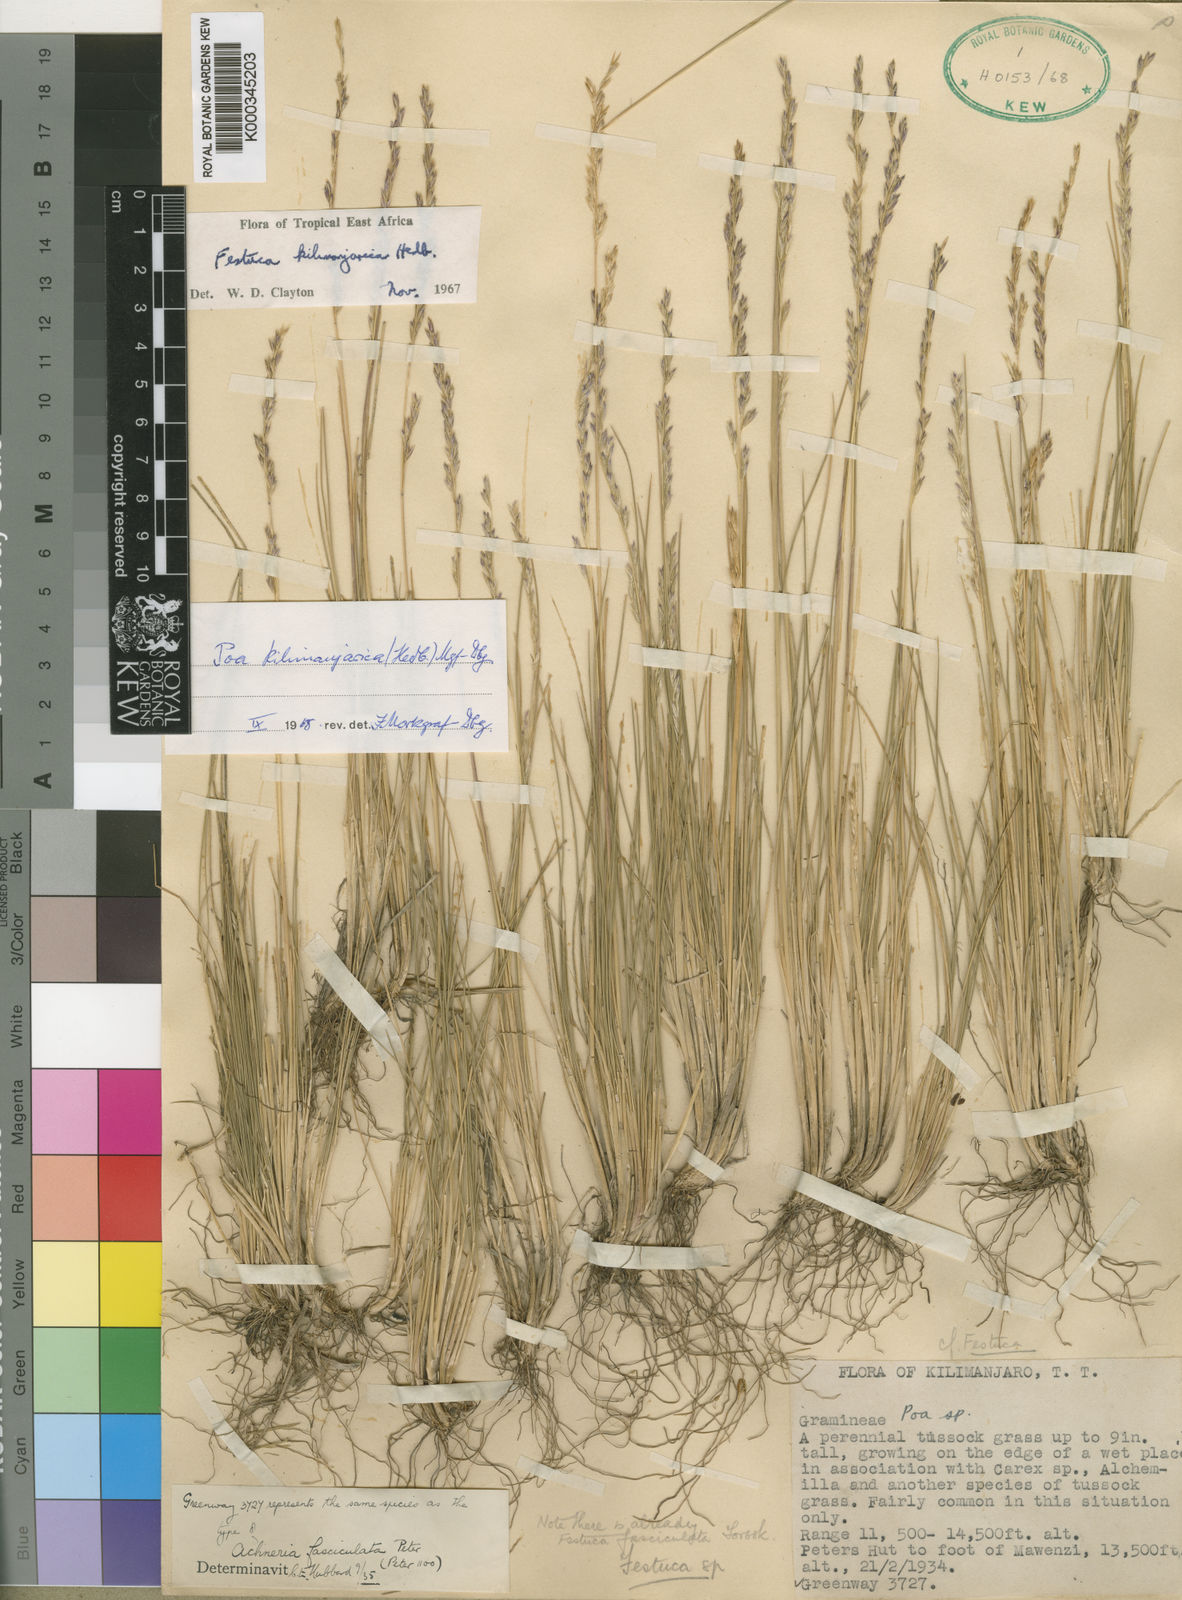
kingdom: Plantae
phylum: Tracheophyta
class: Liliopsida
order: Poales
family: Poaceae
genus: Poa
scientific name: Poa kilimanjarica
